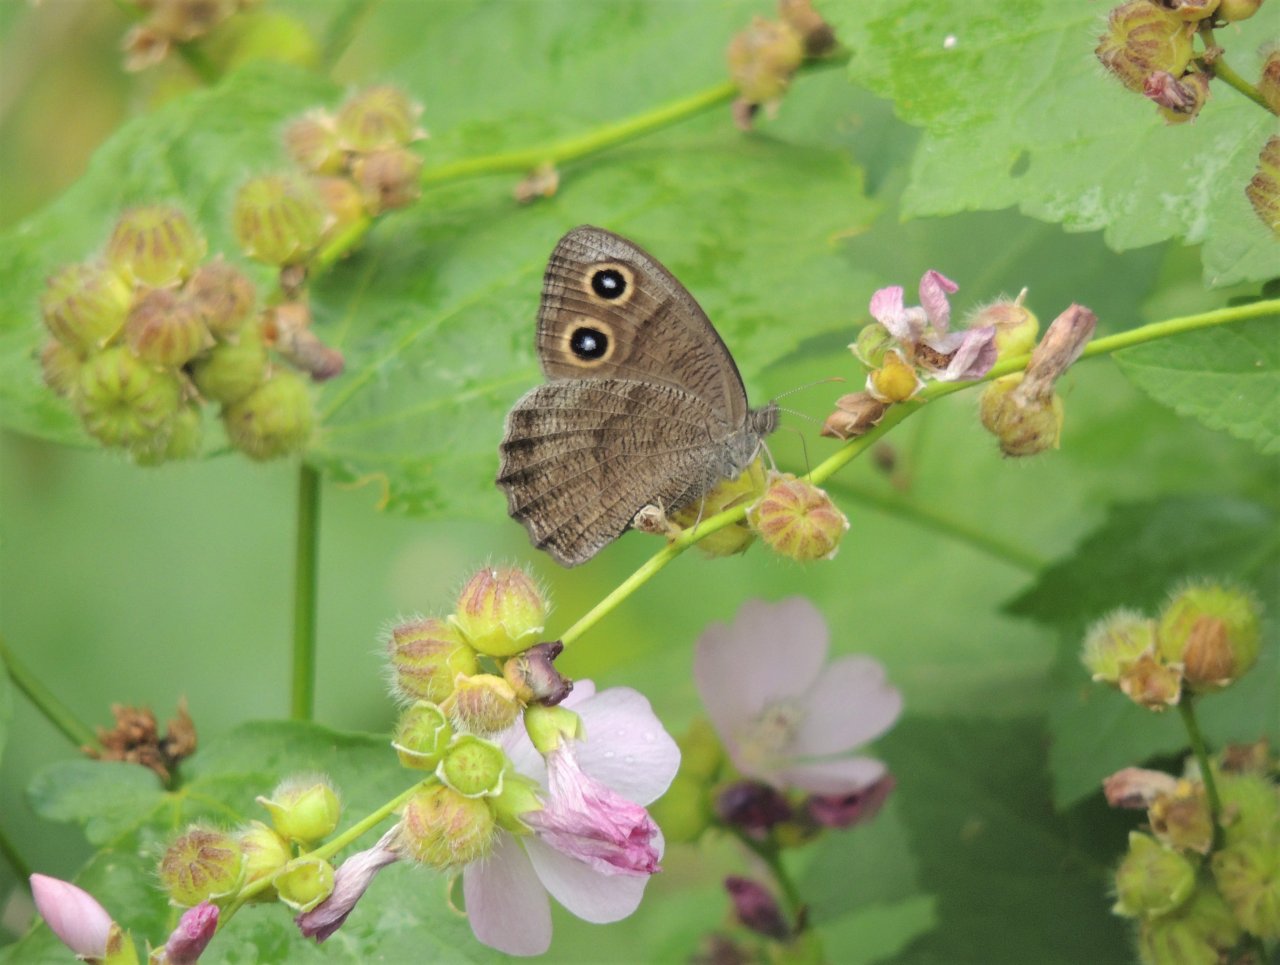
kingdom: Animalia
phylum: Arthropoda
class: Insecta
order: Lepidoptera
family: Nymphalidae
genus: Cercyonis
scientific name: Cercyonis pegala
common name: Common Wood-Nymph
